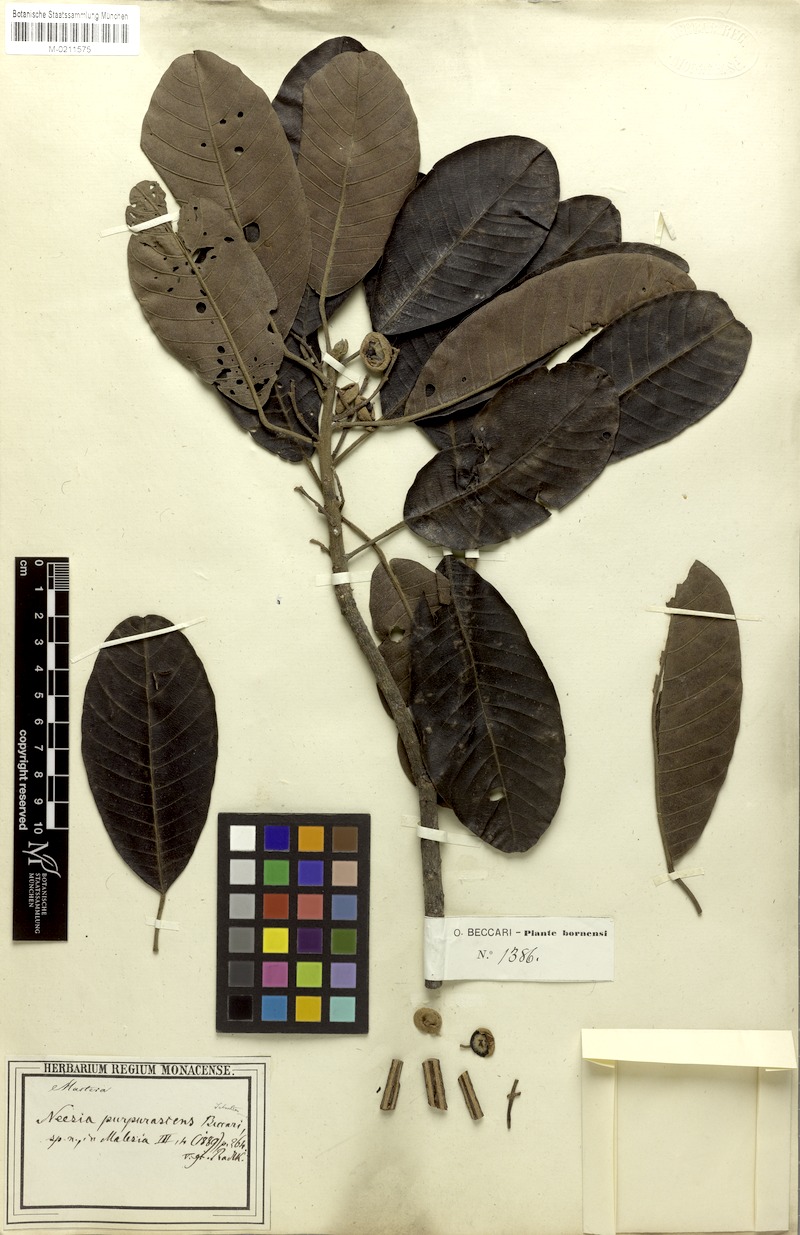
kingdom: Plantae
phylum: Tracheophyta
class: Magnoliopsida
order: Malvales
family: Malvaceae
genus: Neesia
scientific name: Neesia purpurascens
